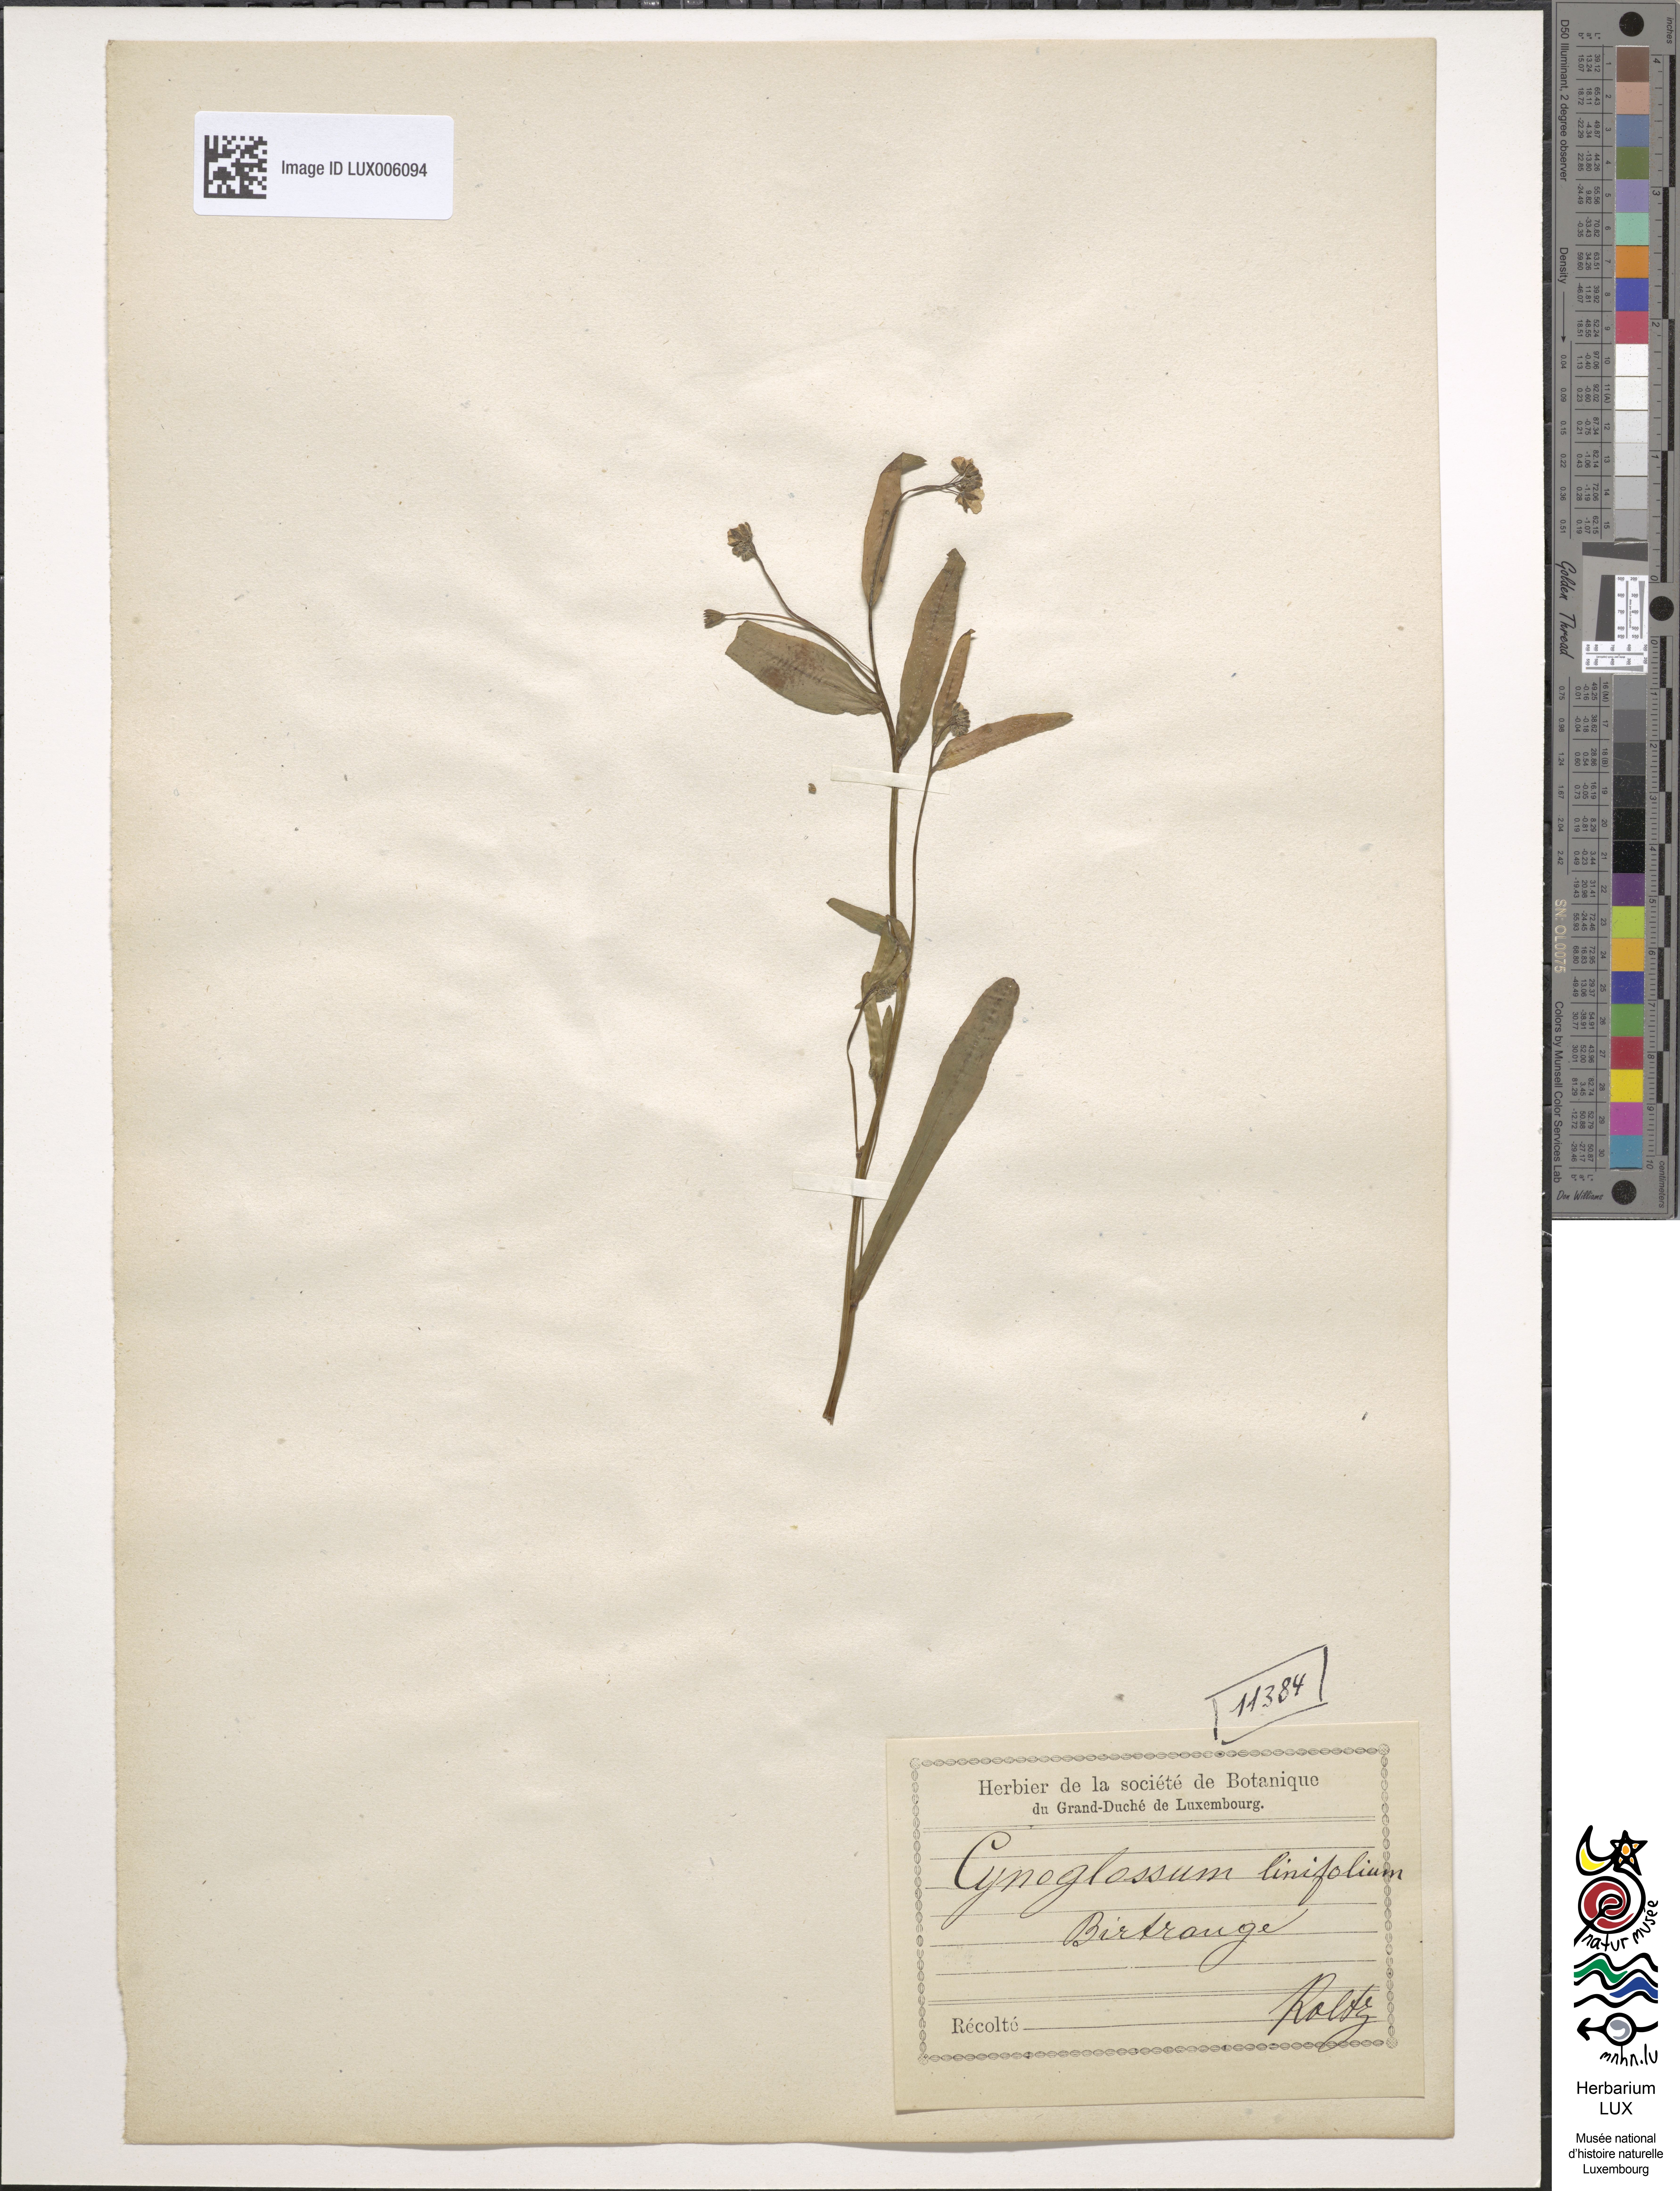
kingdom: Plantae
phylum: Tracheophyta
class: Magnoliopsida
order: Boraginales
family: Boraginaceae
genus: Iberodes
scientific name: Iberodes linifolia
